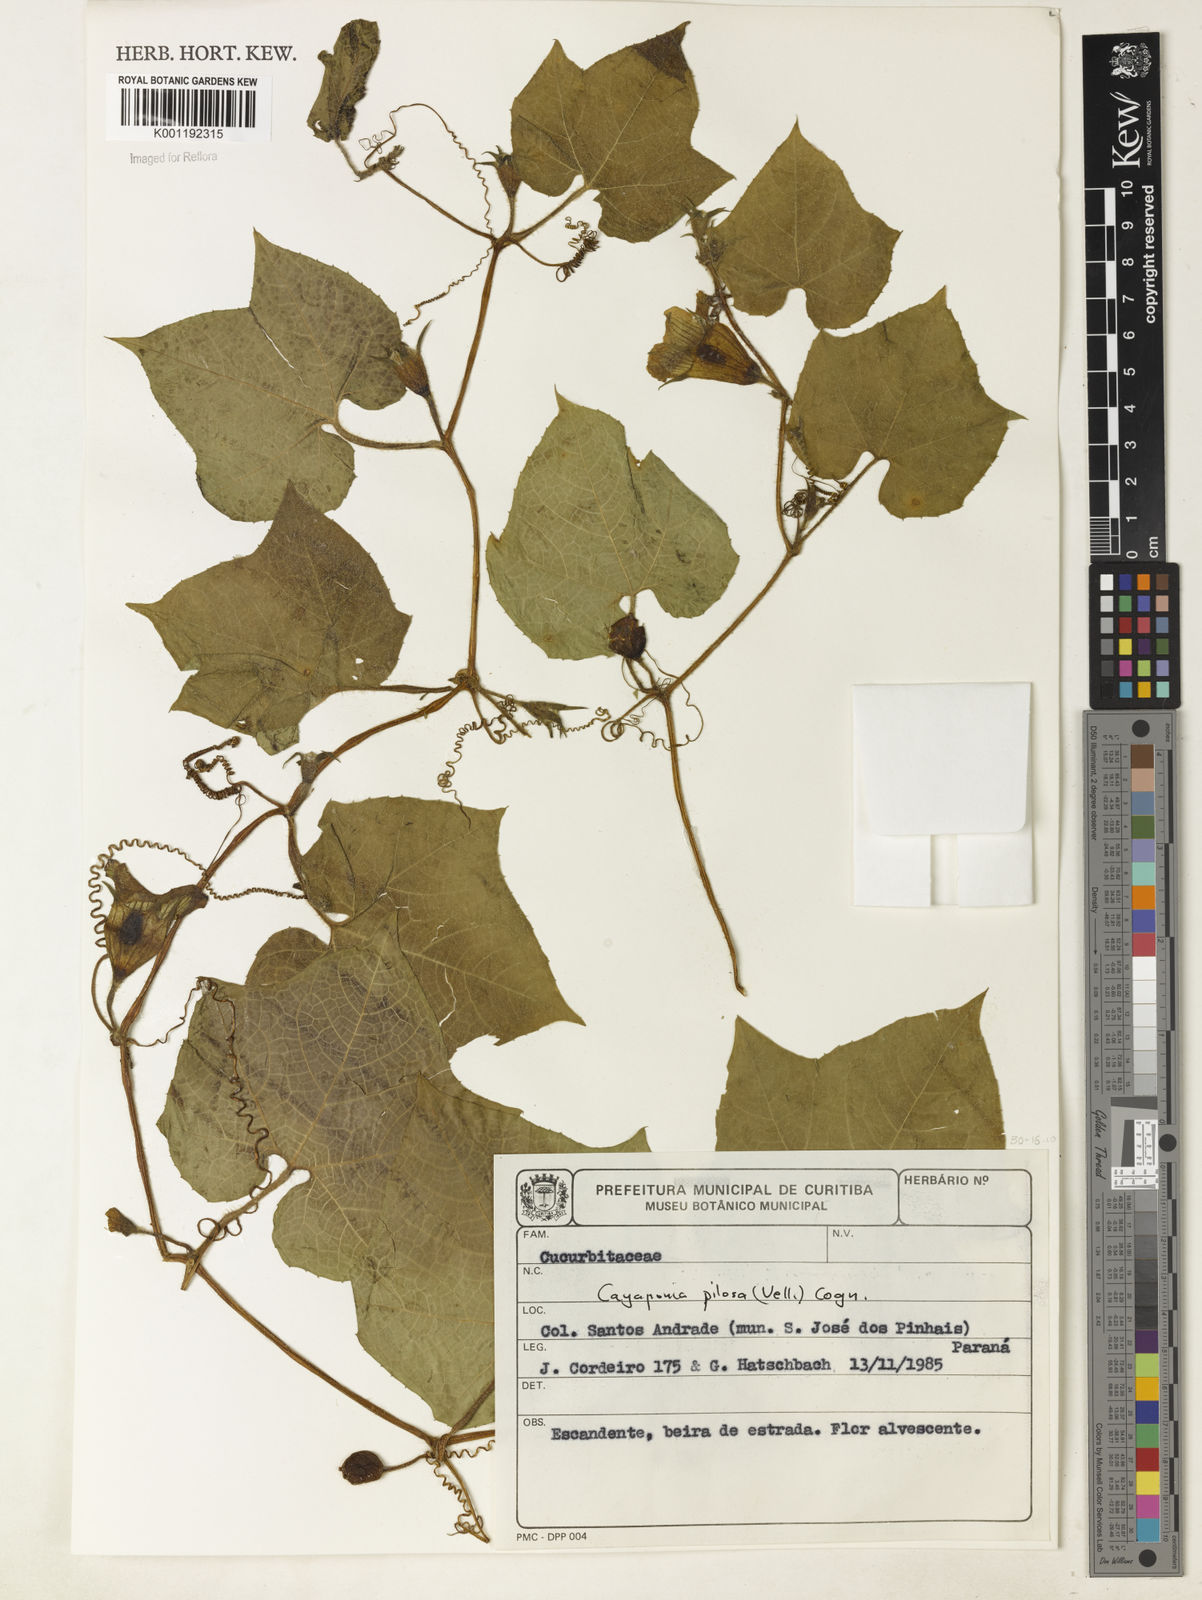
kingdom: Plantae
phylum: Tracheophyta
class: Magnoliopsida
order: Cucurbitales
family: Cucurbitaceae
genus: Cayaponia
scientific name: Cayaponia pilosa
